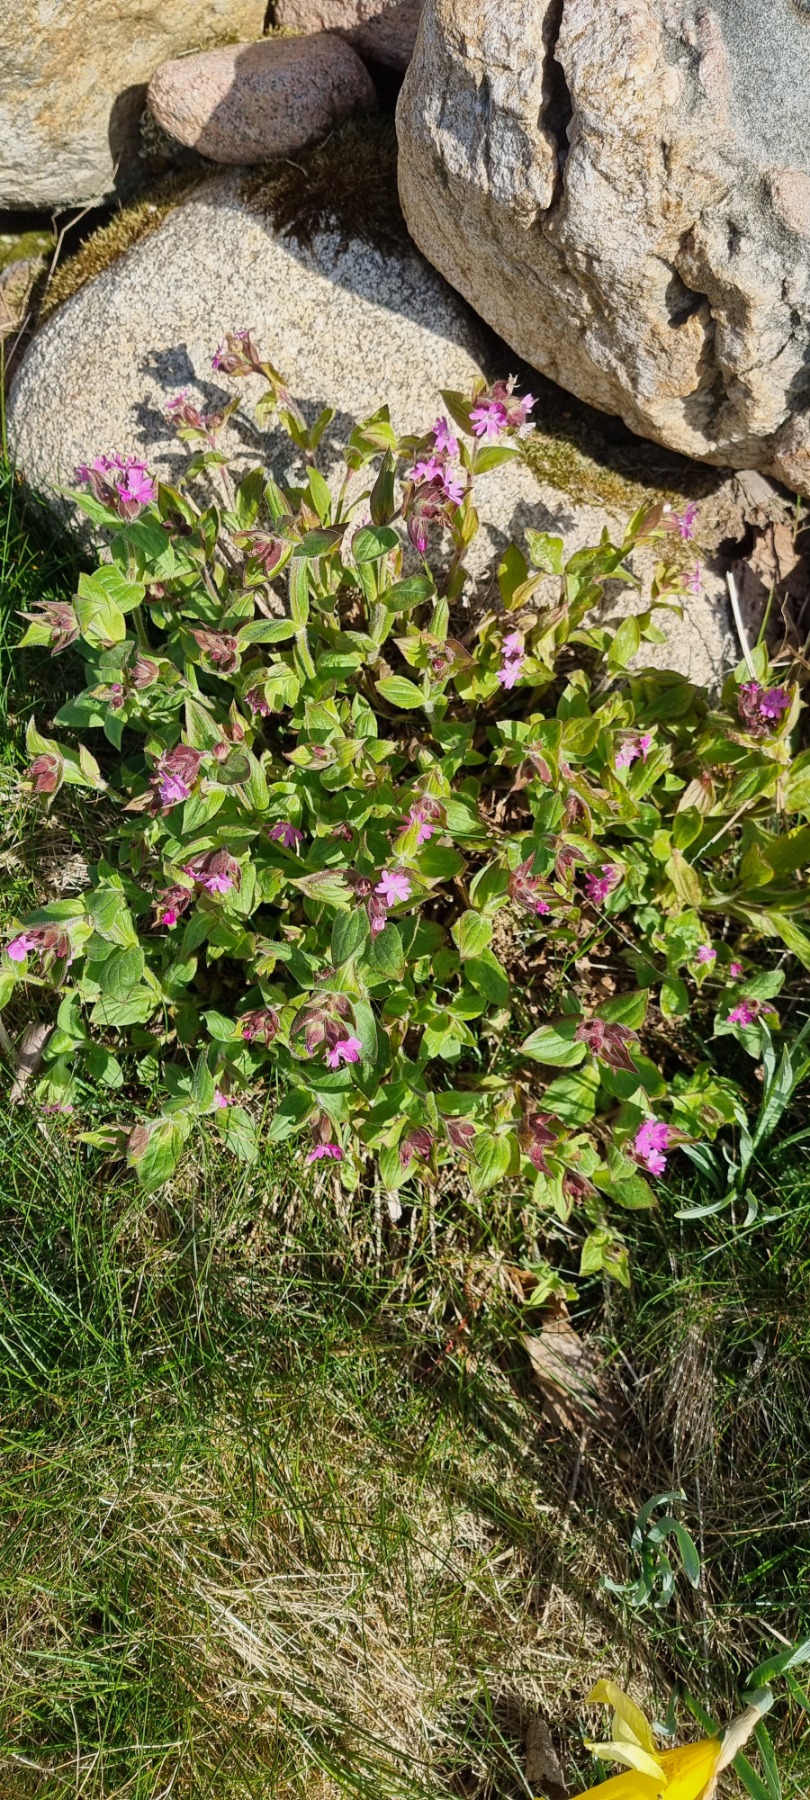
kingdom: Plantae
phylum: Tracheophyta
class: Magnoliopsida
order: Caryophyllales
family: Caryophyllaceae
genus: Silene
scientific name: Silene dioica
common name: Dagpragtstjerne
